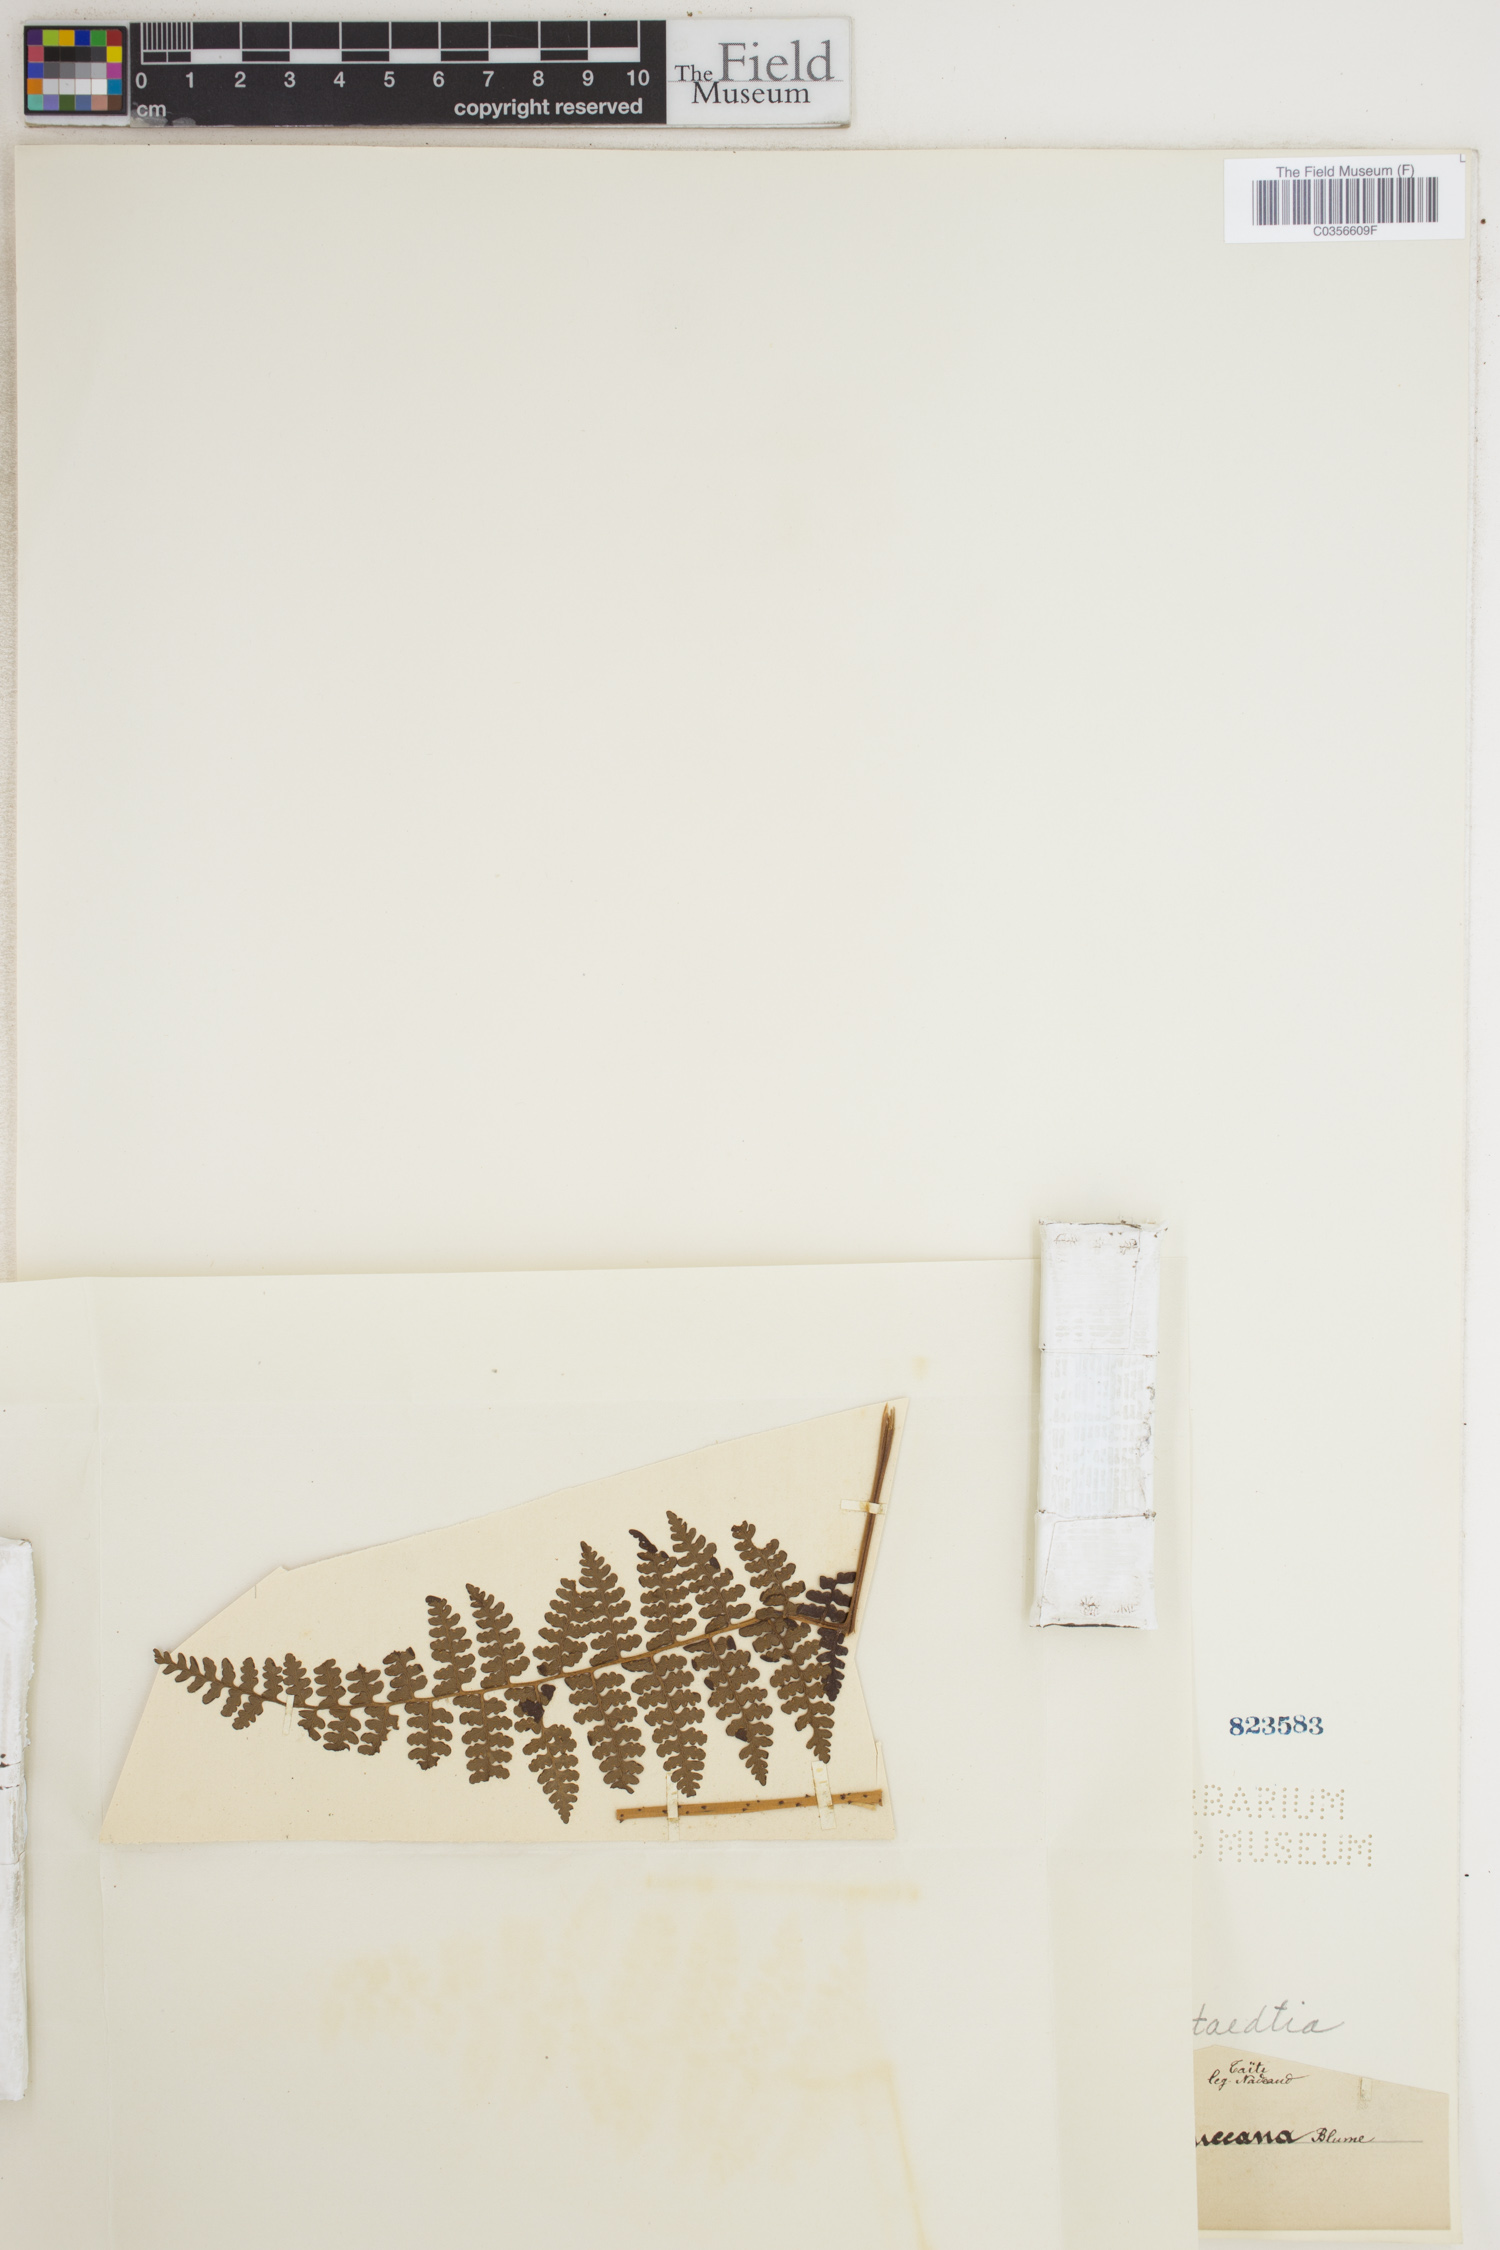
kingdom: Plantae
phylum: Tracheophyta
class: Polypodiopsida
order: Polypodiales
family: Lindsaeaceae
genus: Tapeinidium
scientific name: Tapeinidium moluccanum
